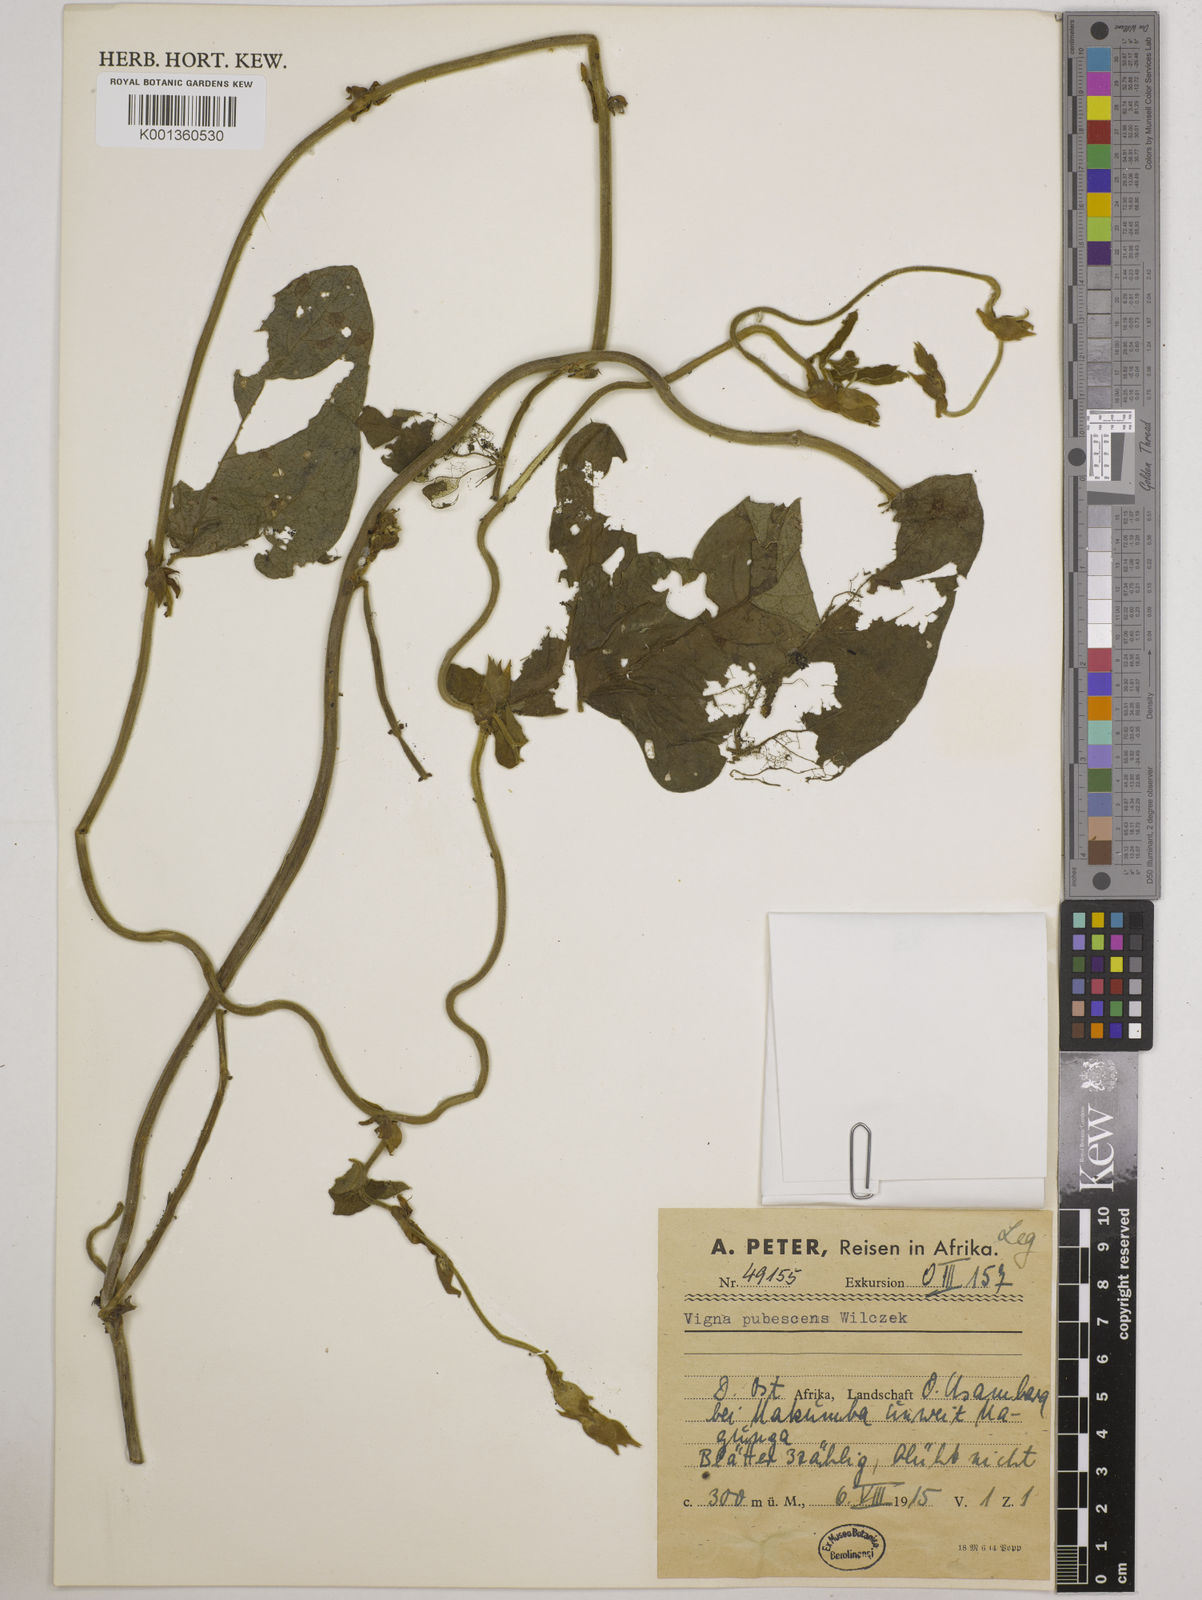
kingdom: Plantae
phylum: Tracheophyta
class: Magnoliopsida
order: Fabales
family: Fabaceae
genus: Vigna
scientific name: Vigna unguiculata
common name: Cowpea
